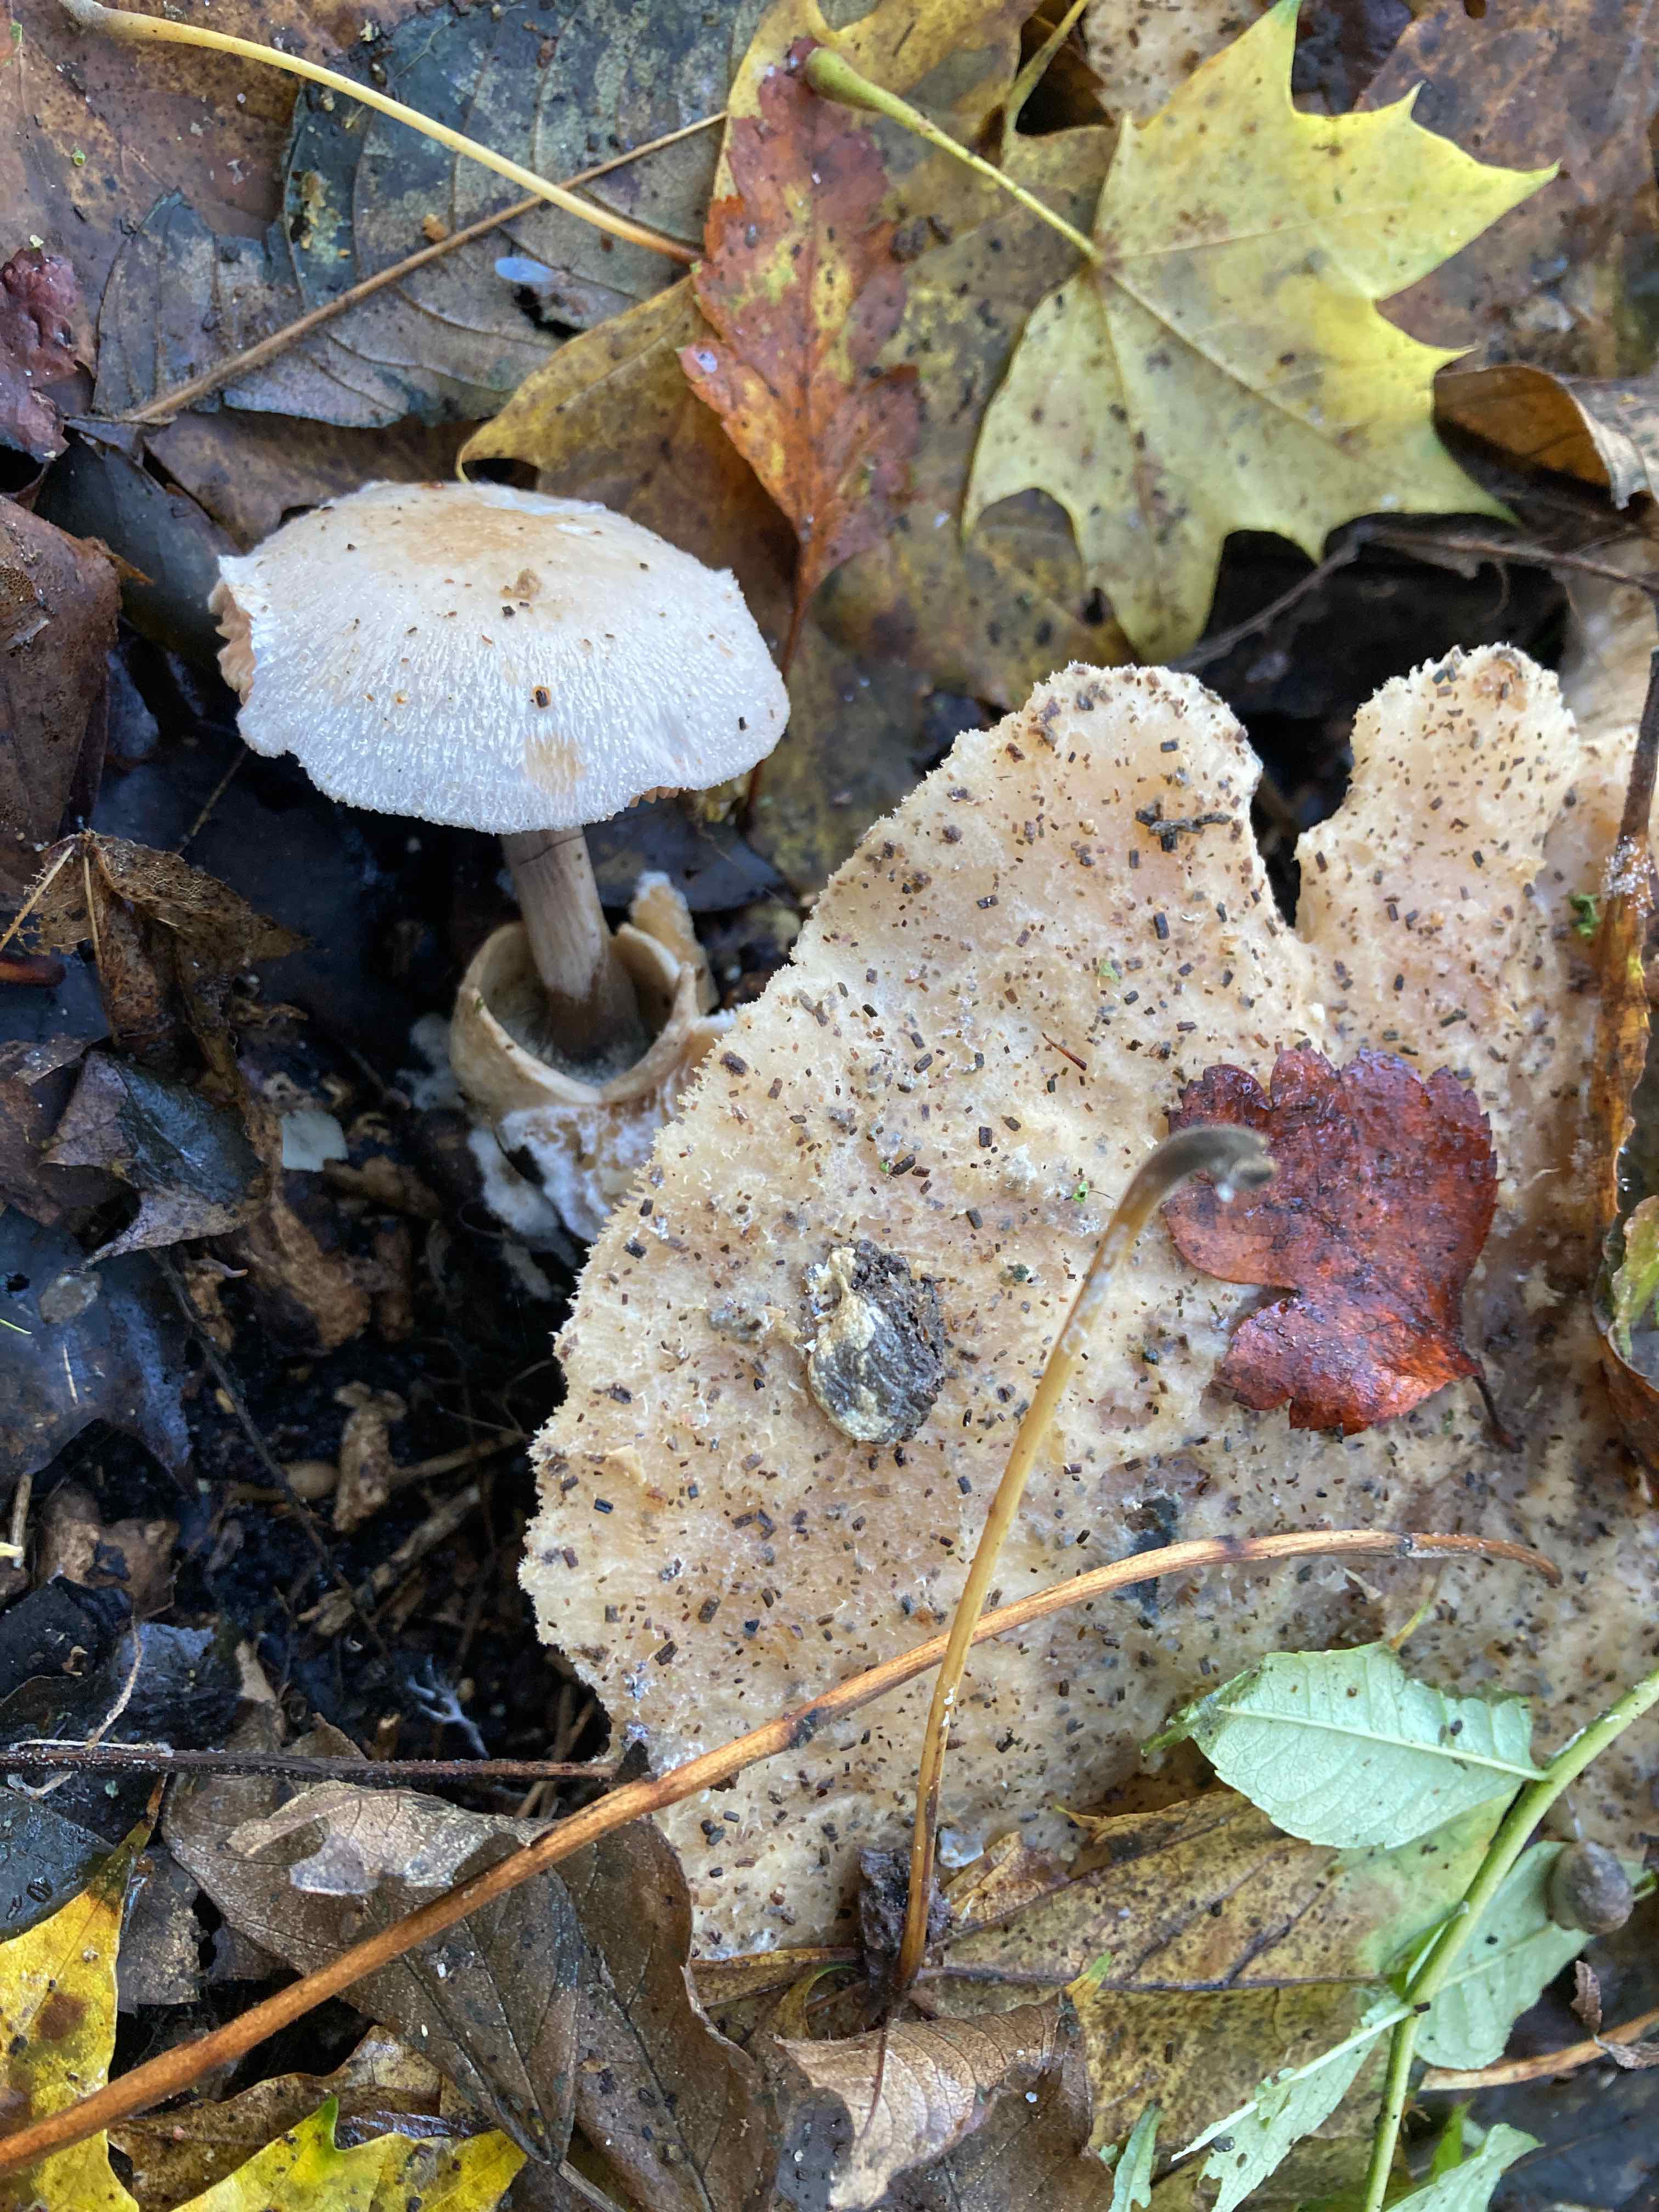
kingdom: Fungi
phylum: Basidiomycota
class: Agaricomycetes
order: Agaricales
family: Pluteaceae
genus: Volvariella
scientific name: Volvariella surrecta
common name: snyltende posesvamp
